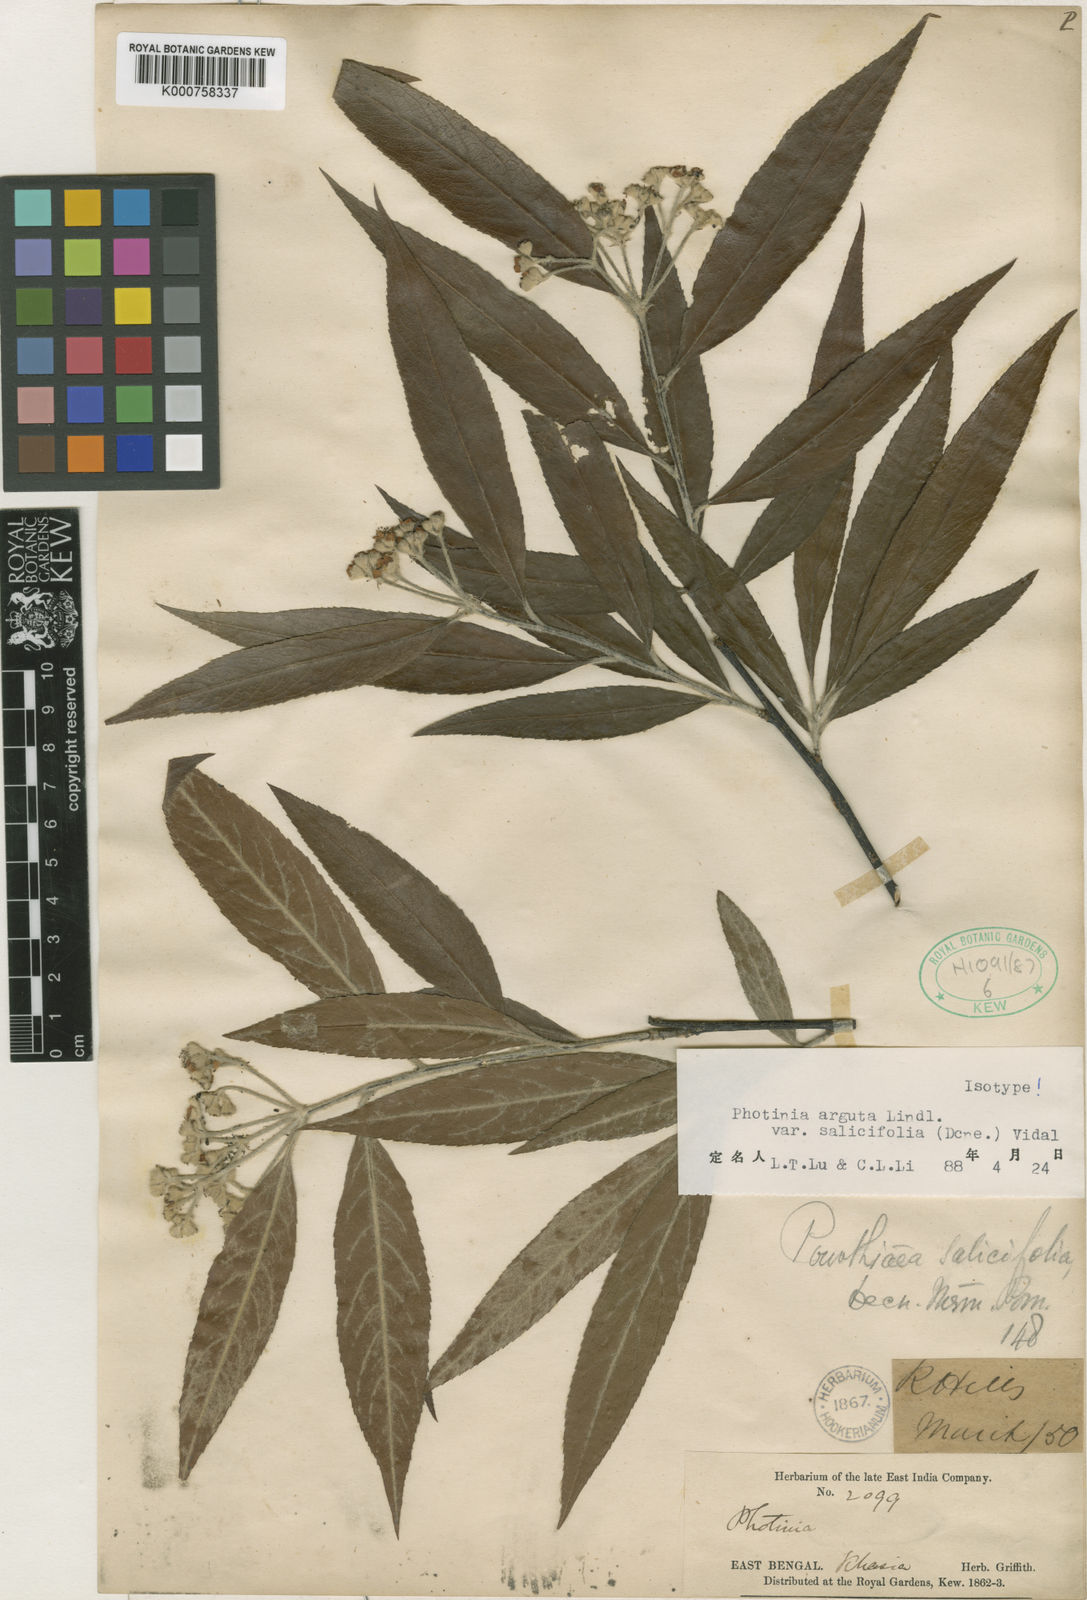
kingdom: Plantae
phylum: Tracheophyta
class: Magnoliopsida
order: Rosales
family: Rosaceae
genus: Photinia
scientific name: Photinia
